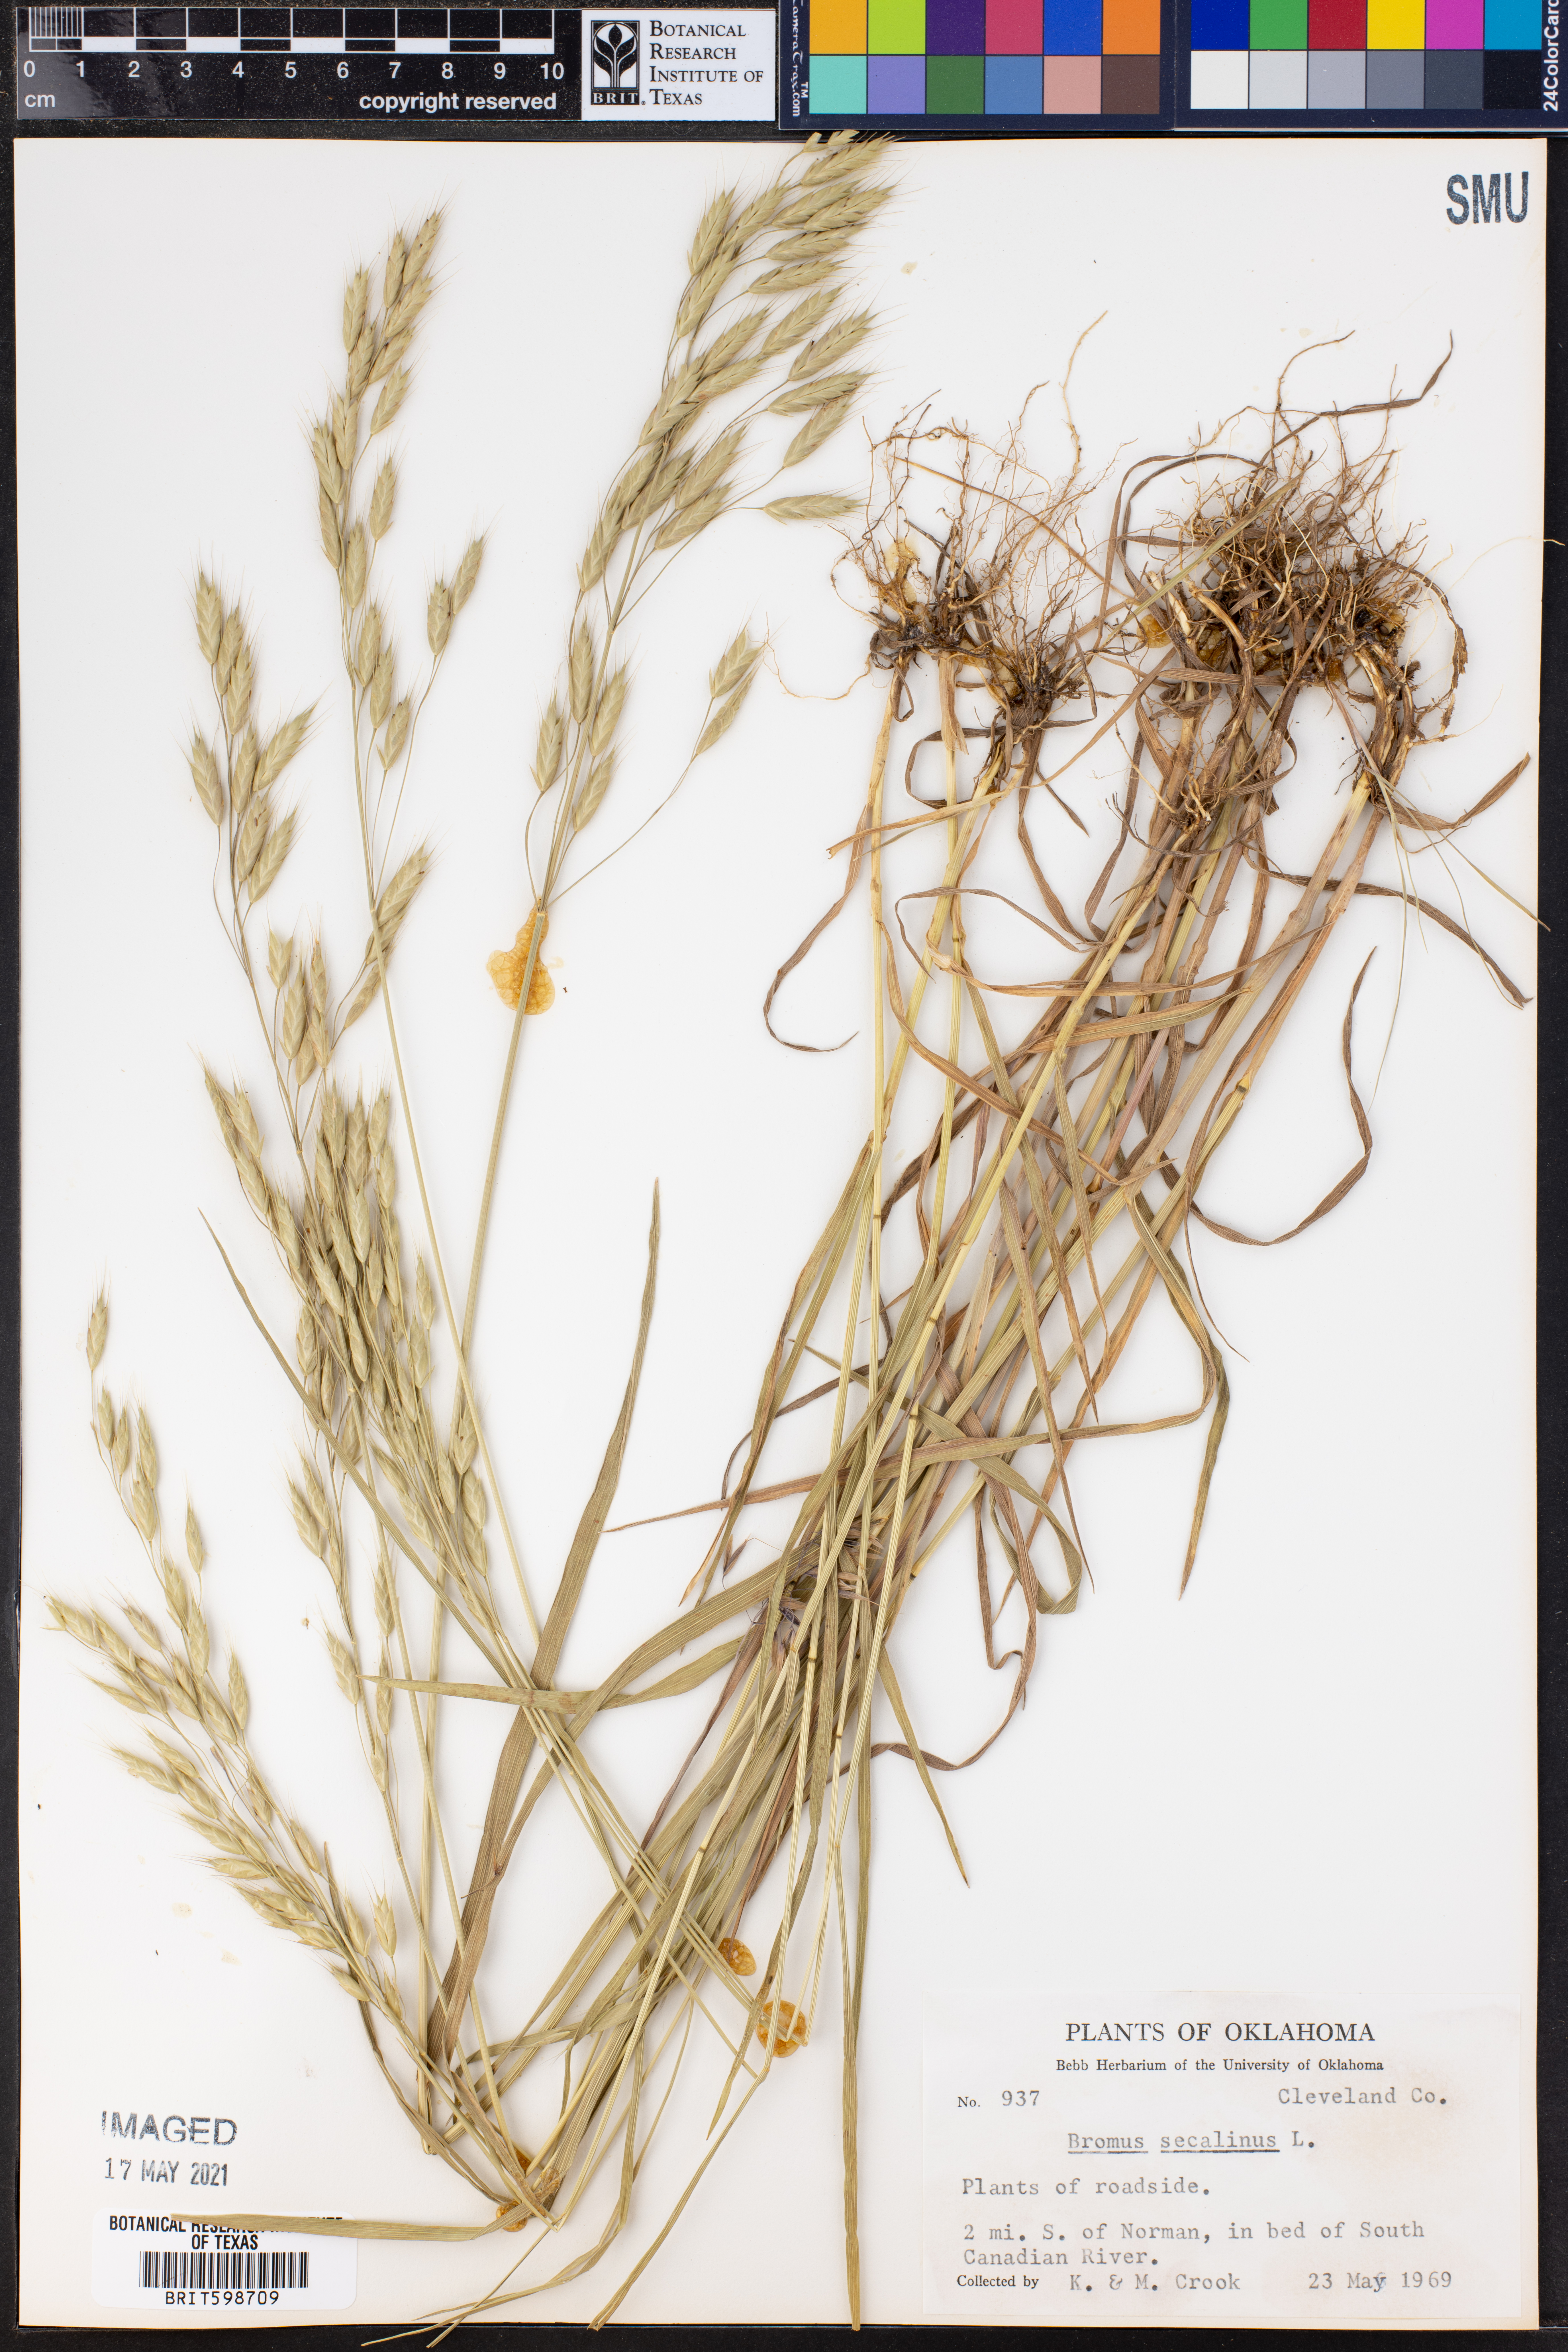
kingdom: Plantae
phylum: Tracheophyta
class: Liliopsida
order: Poales
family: Poaceae
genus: Bromus
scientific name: Bromus secalinus
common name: Rye brome
